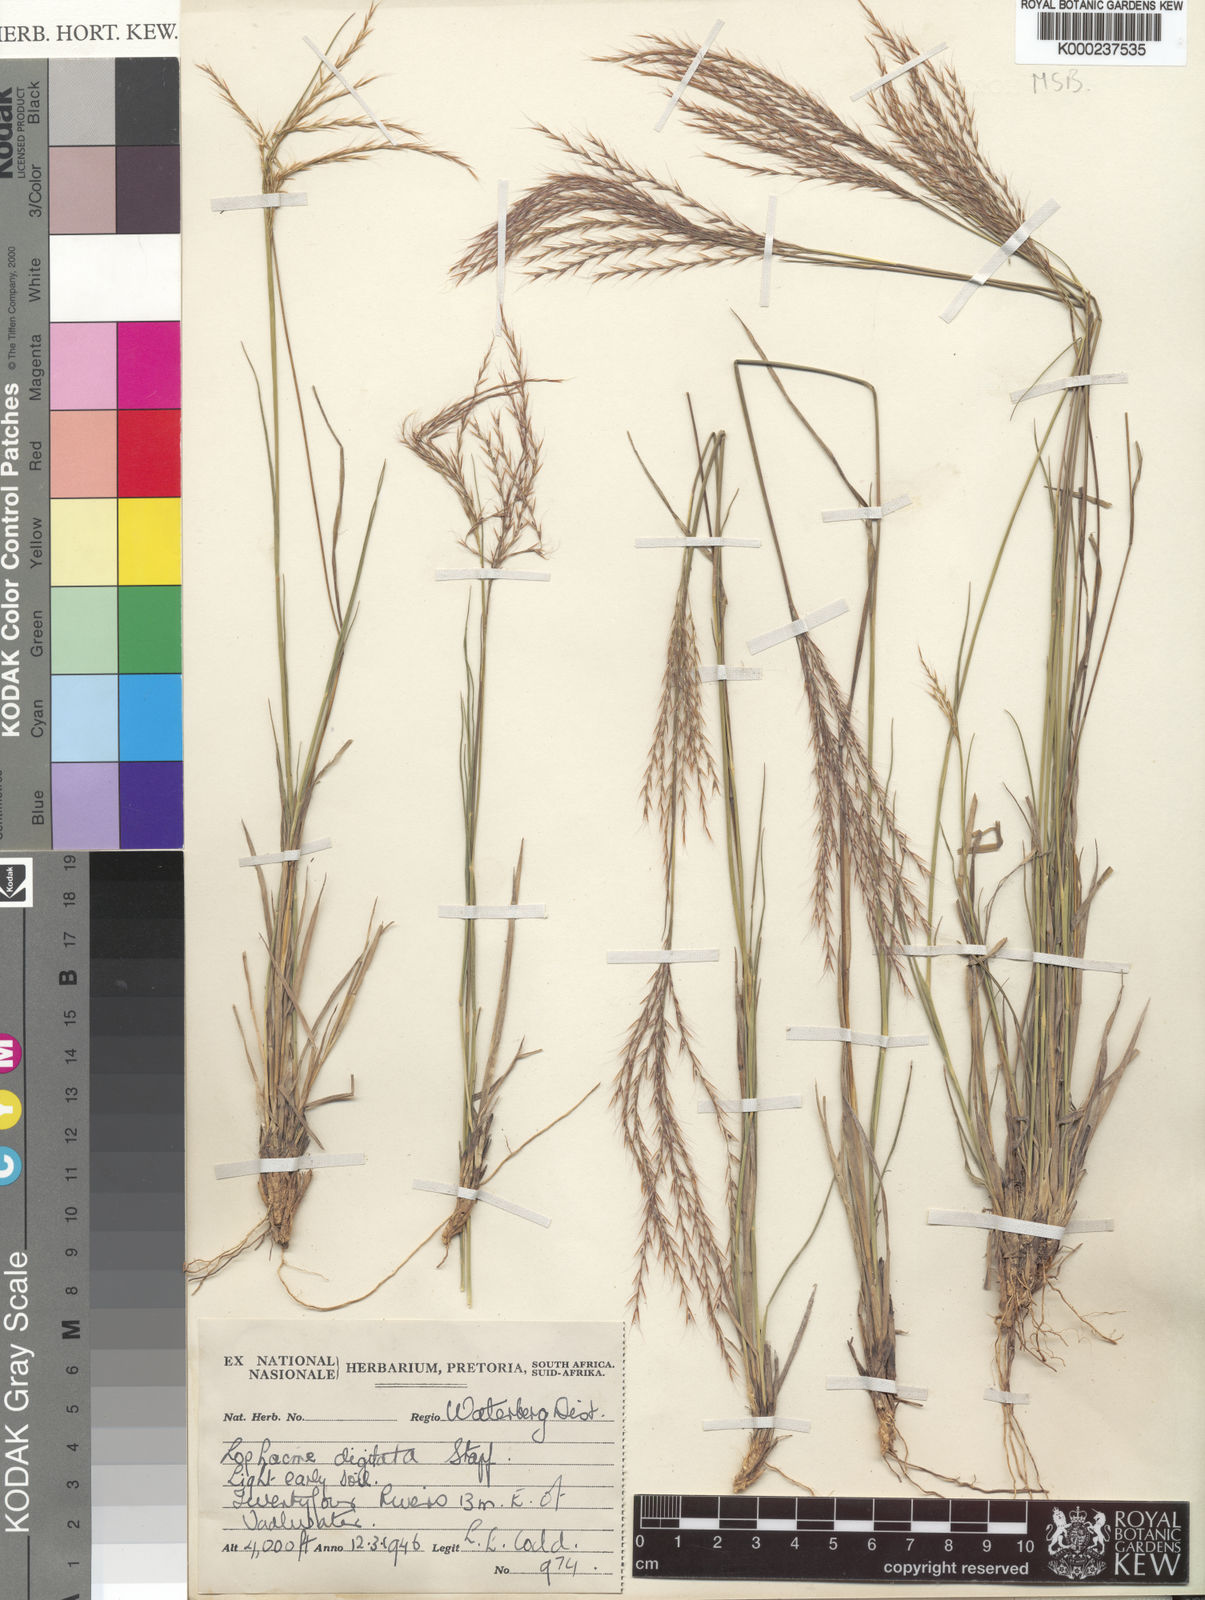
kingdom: Plantae
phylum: Tracheophyta
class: Liliopsida
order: Poales
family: Poaceae
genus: Lophacme
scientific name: Lophacme digitata
